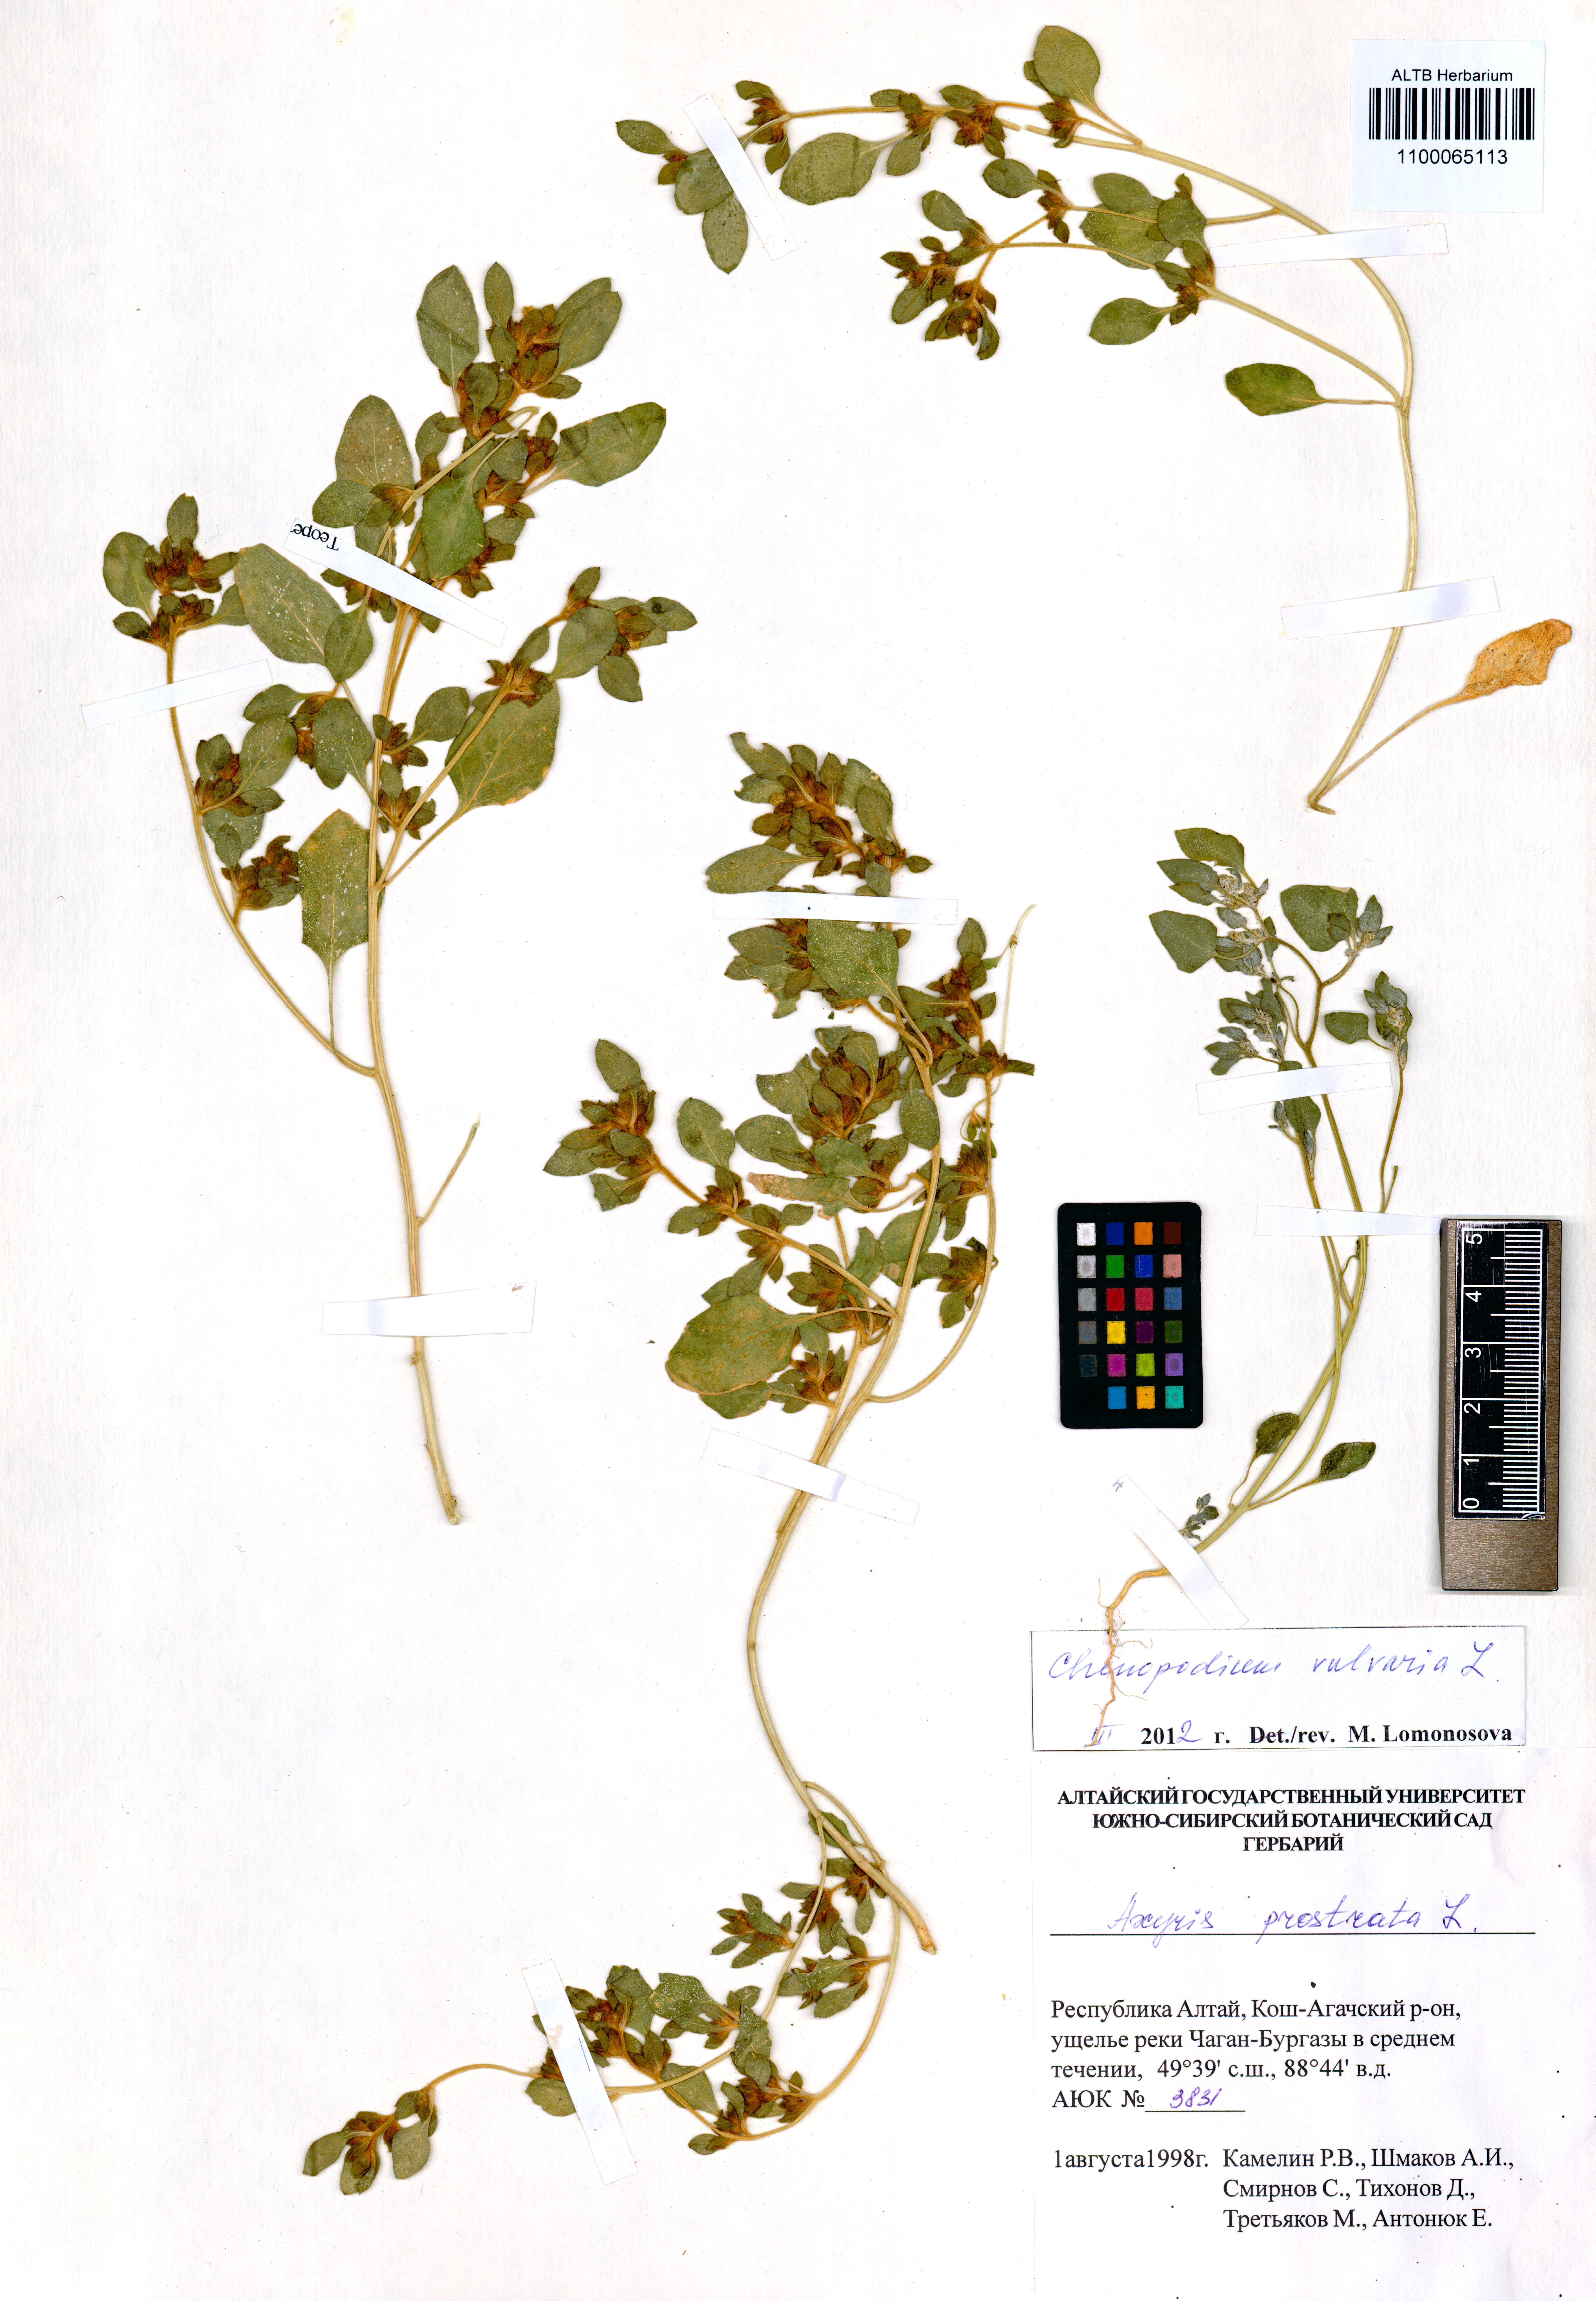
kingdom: Plantae
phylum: Tracheophyta
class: Magnoliopsida
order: Caryophyllales
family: Amaranthaceae
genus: Chenopodium
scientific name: Chenopodium vulvaria
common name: Stinking goosefoot
